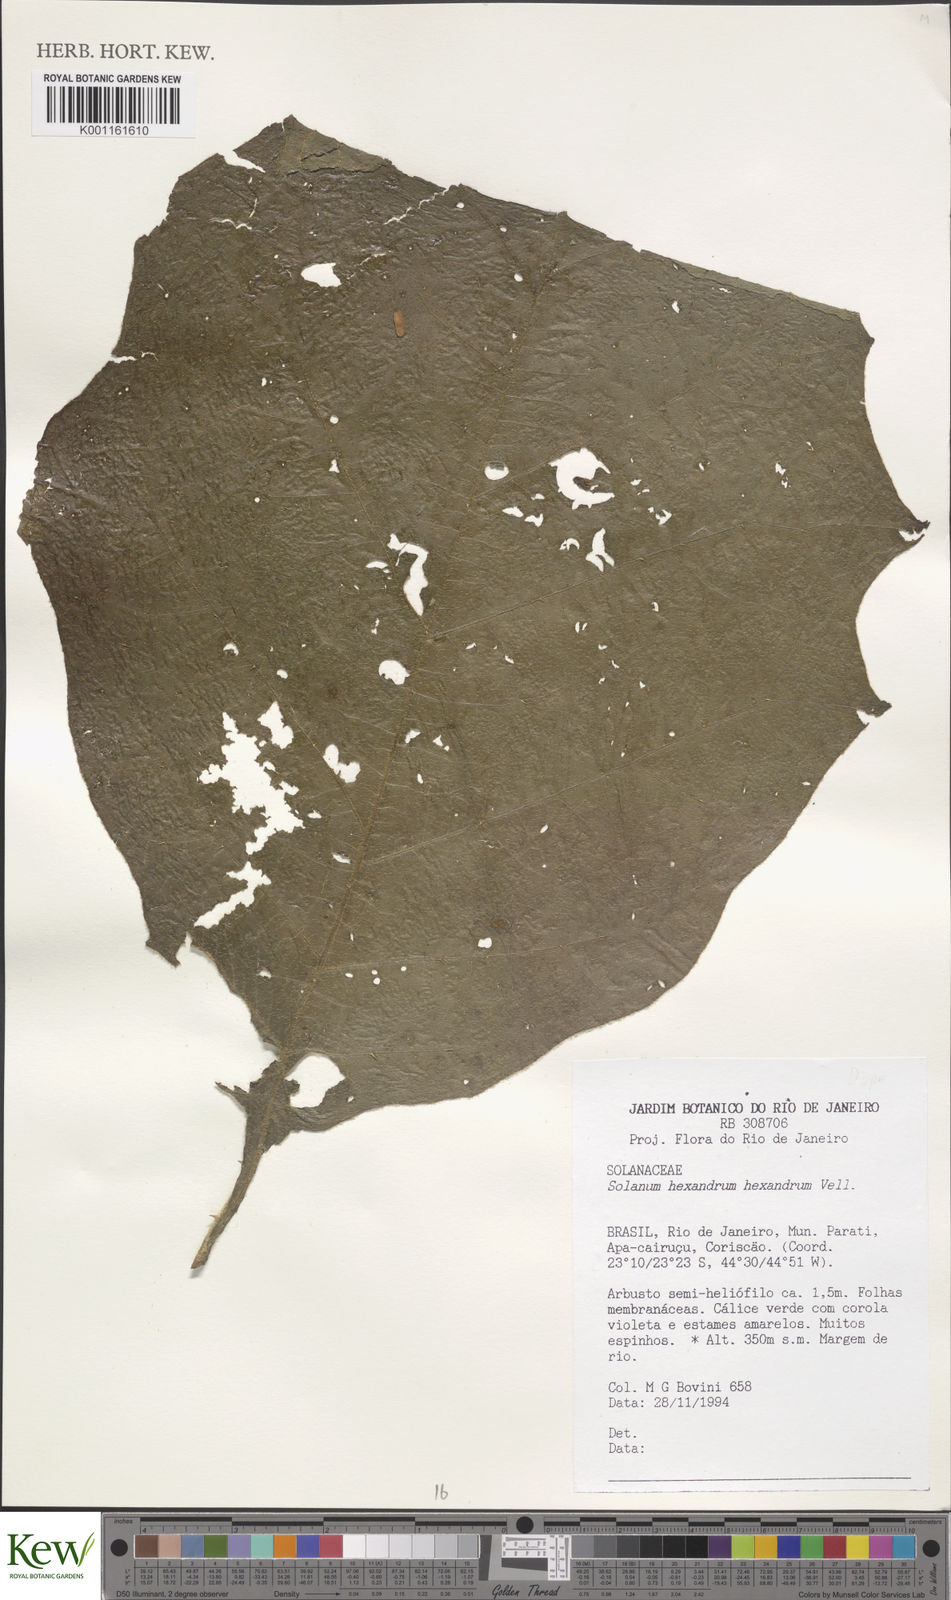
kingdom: Plantae
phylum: Tracheophyta
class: Magnoliopsida
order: Solanales
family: Solanaceae
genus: Solanum
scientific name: Solanum hexandrum
